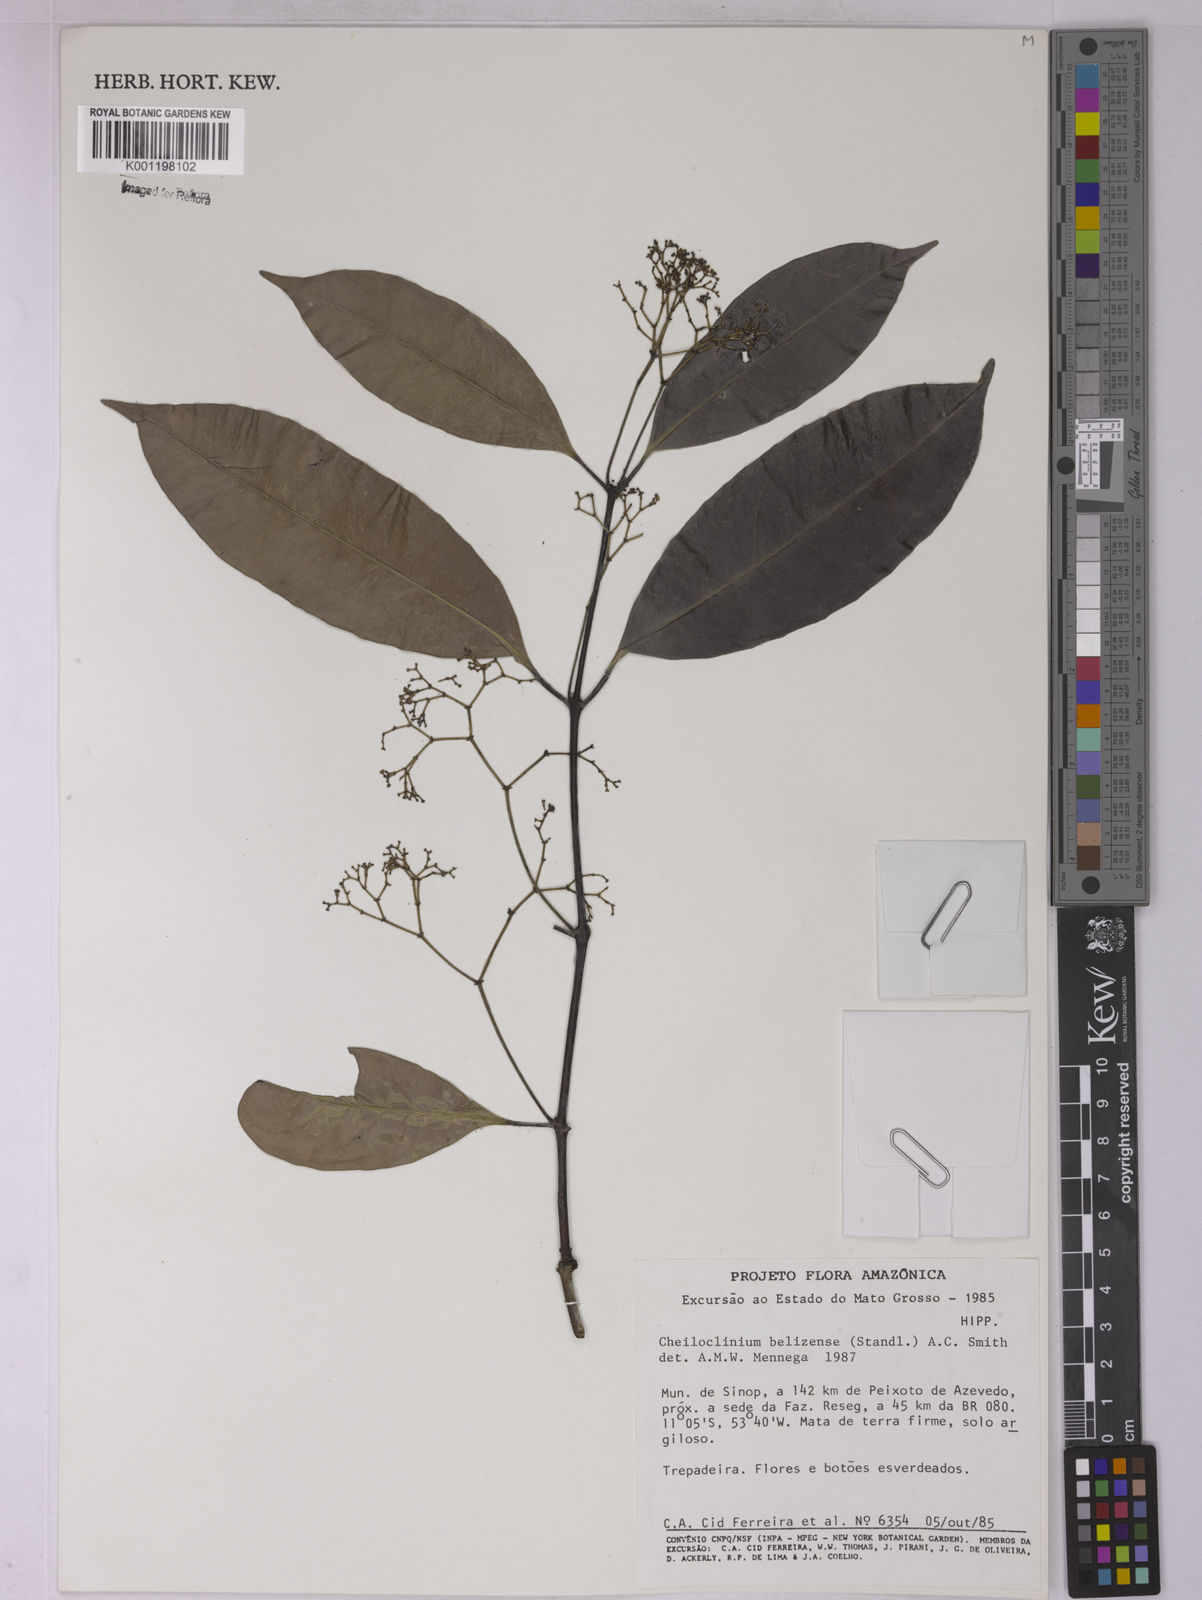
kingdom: Plantae
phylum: Tracheophyta
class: Magnoliopsida
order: Celastrales
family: Celastraceae
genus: Cheiloclinium
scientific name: Cheiloclinium belizense
